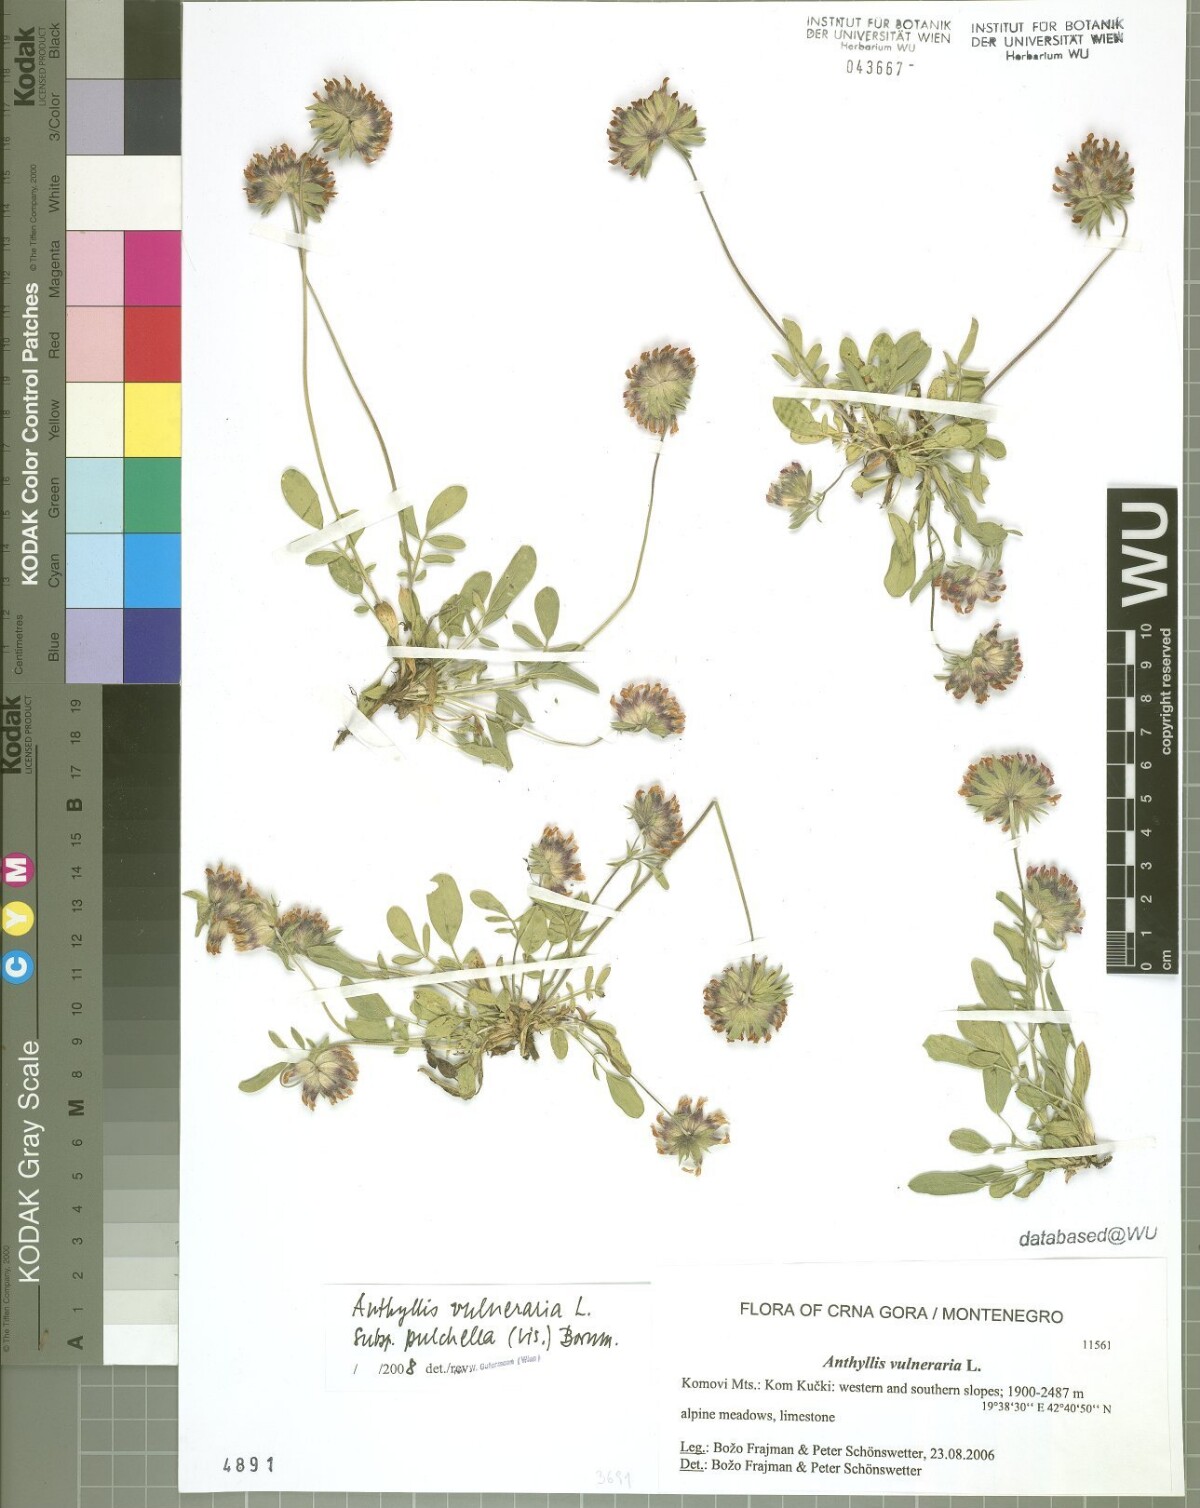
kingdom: Plantae
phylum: Tracheophyta
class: Magnoliopsida
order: Fabales
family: Fabaceae
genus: Anthyllis
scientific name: Anthyllis vulneraria
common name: Kidney vetch
